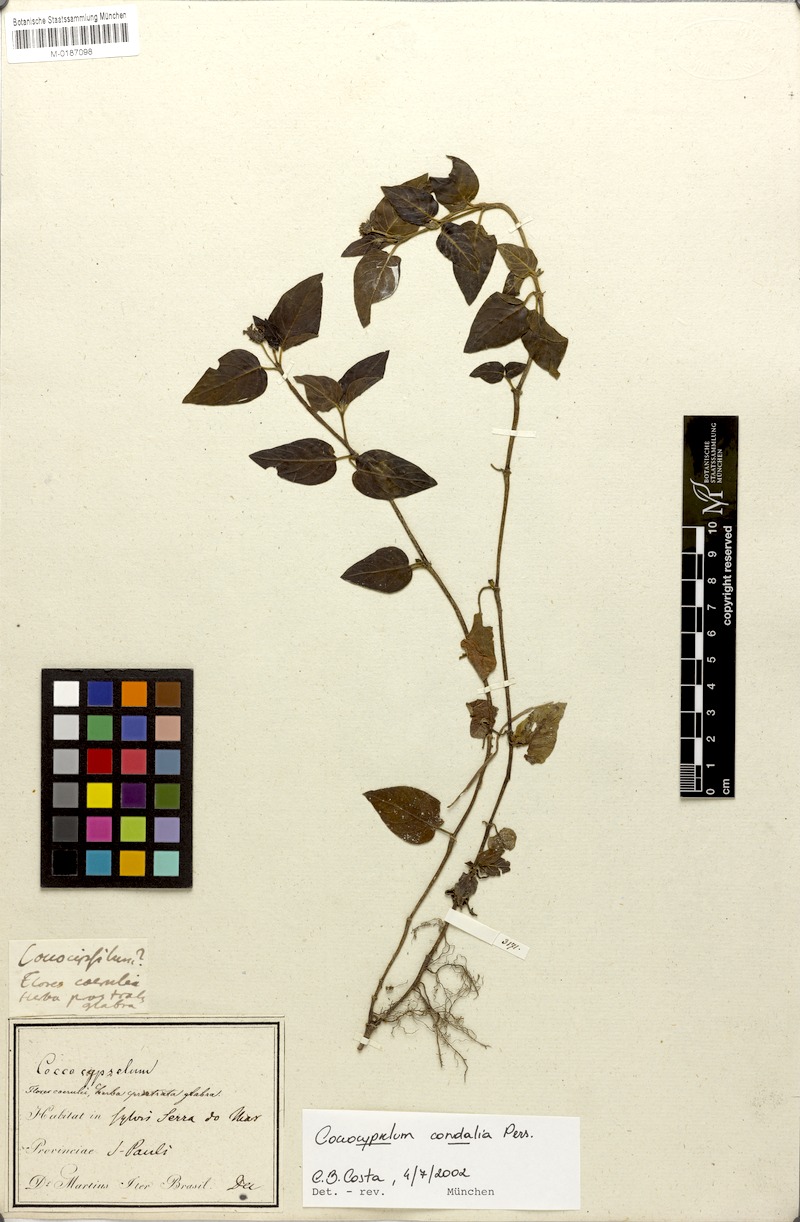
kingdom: Plantae
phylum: Tracheophyta
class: Magnoliopsida
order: Gentianales
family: Rubiaceae
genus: Coccocypselum
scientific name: Coccocypselum condalia
